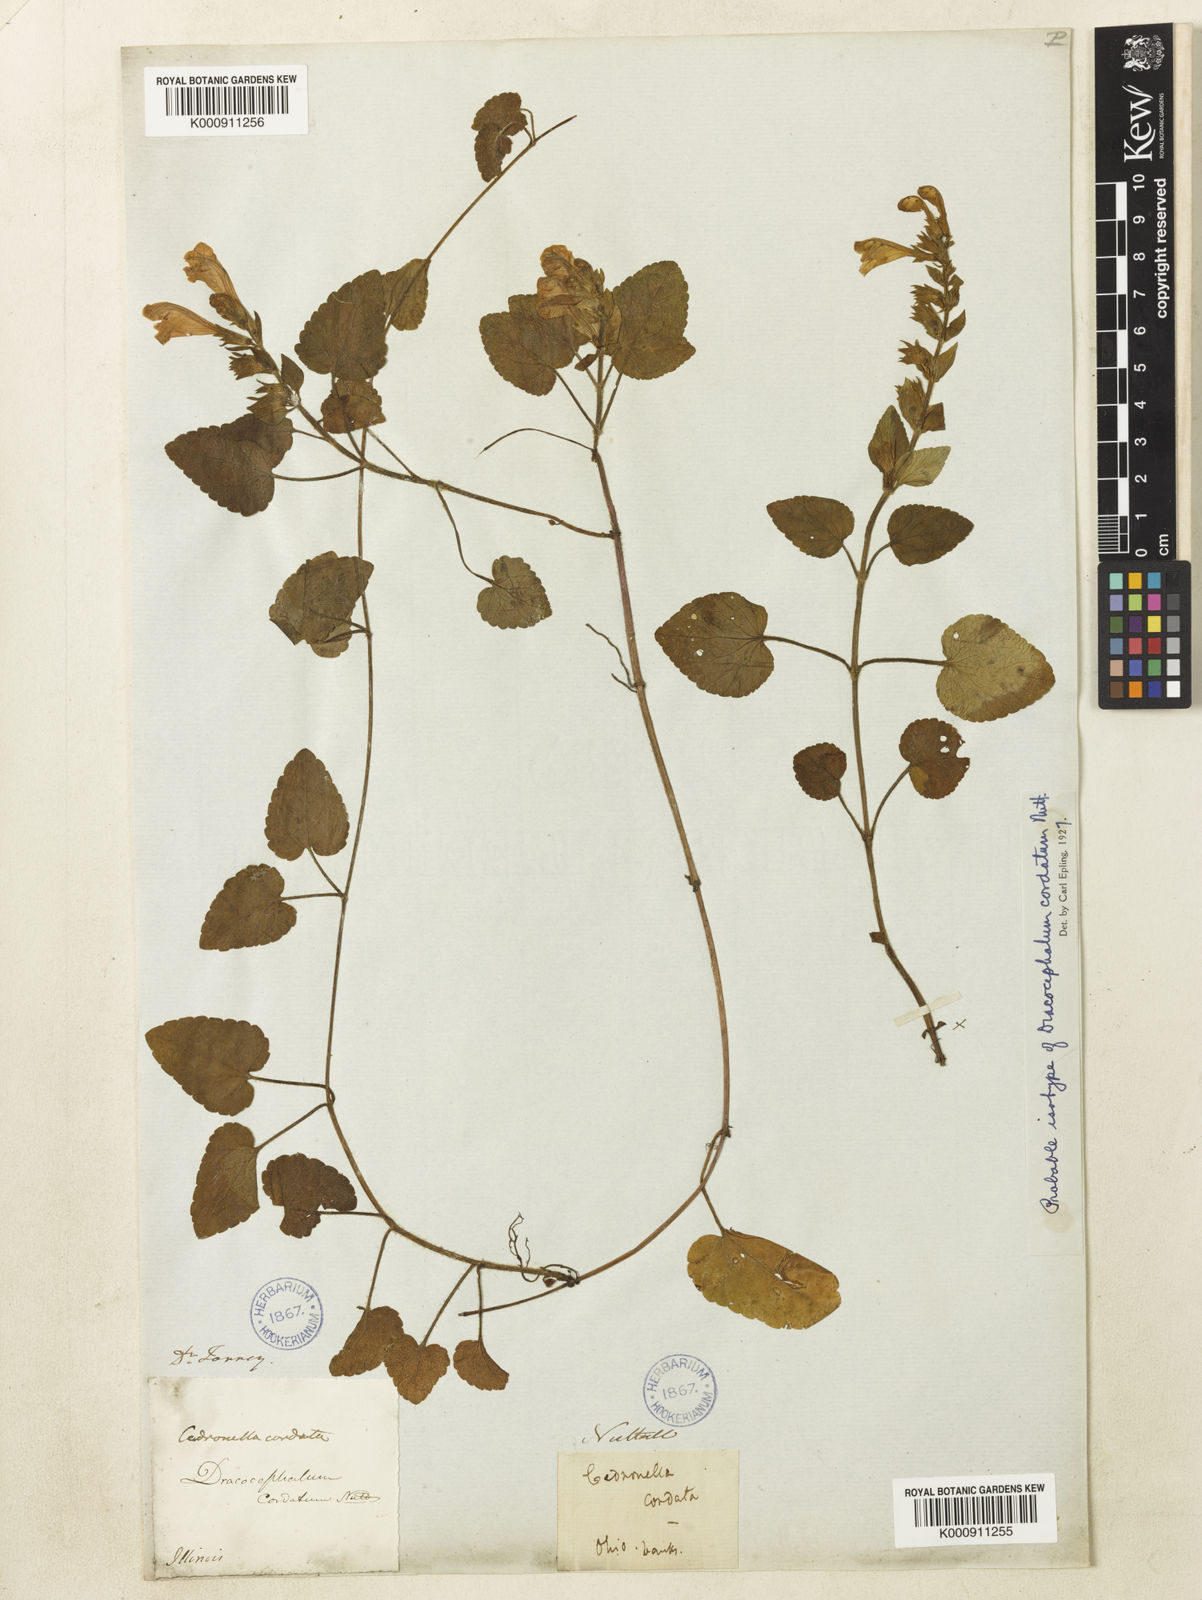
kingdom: Plantae
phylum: Tracheophyta
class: Magnoliopsida
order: Lamiales
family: Lamiaceae
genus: Meehania
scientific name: Meehania cordata
